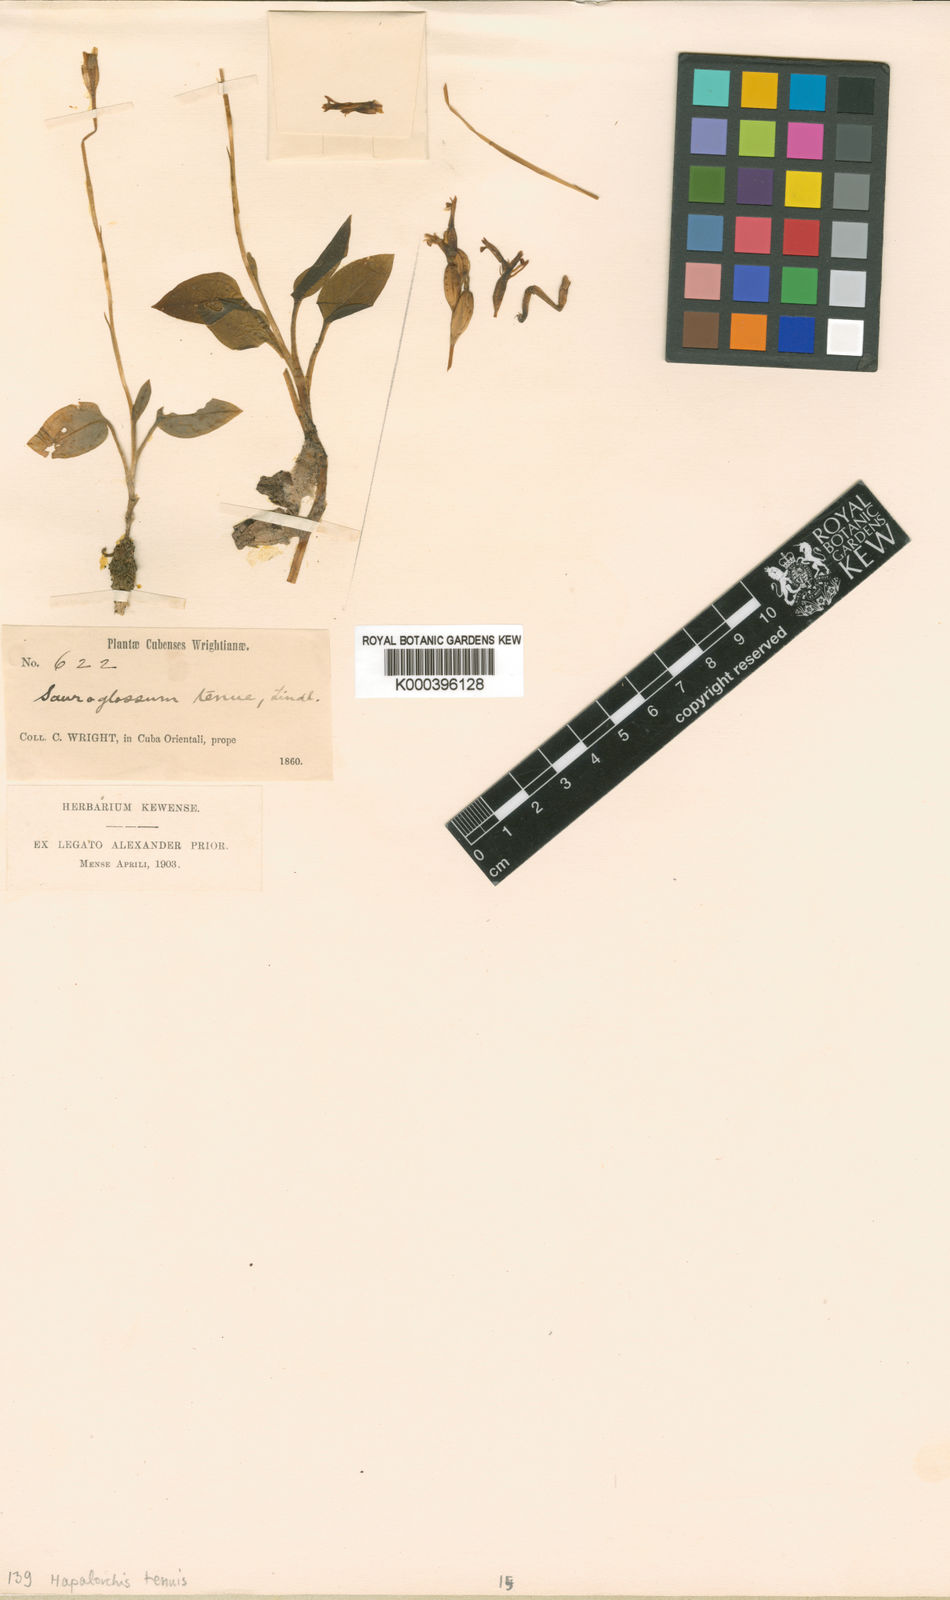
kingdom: Plantae
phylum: Tracheophyta
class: Liliopsida
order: Asparagales
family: Orchidaceae
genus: Hapalorchis
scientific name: Hapalorchis lineata
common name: Tropical ladies'-tresses
